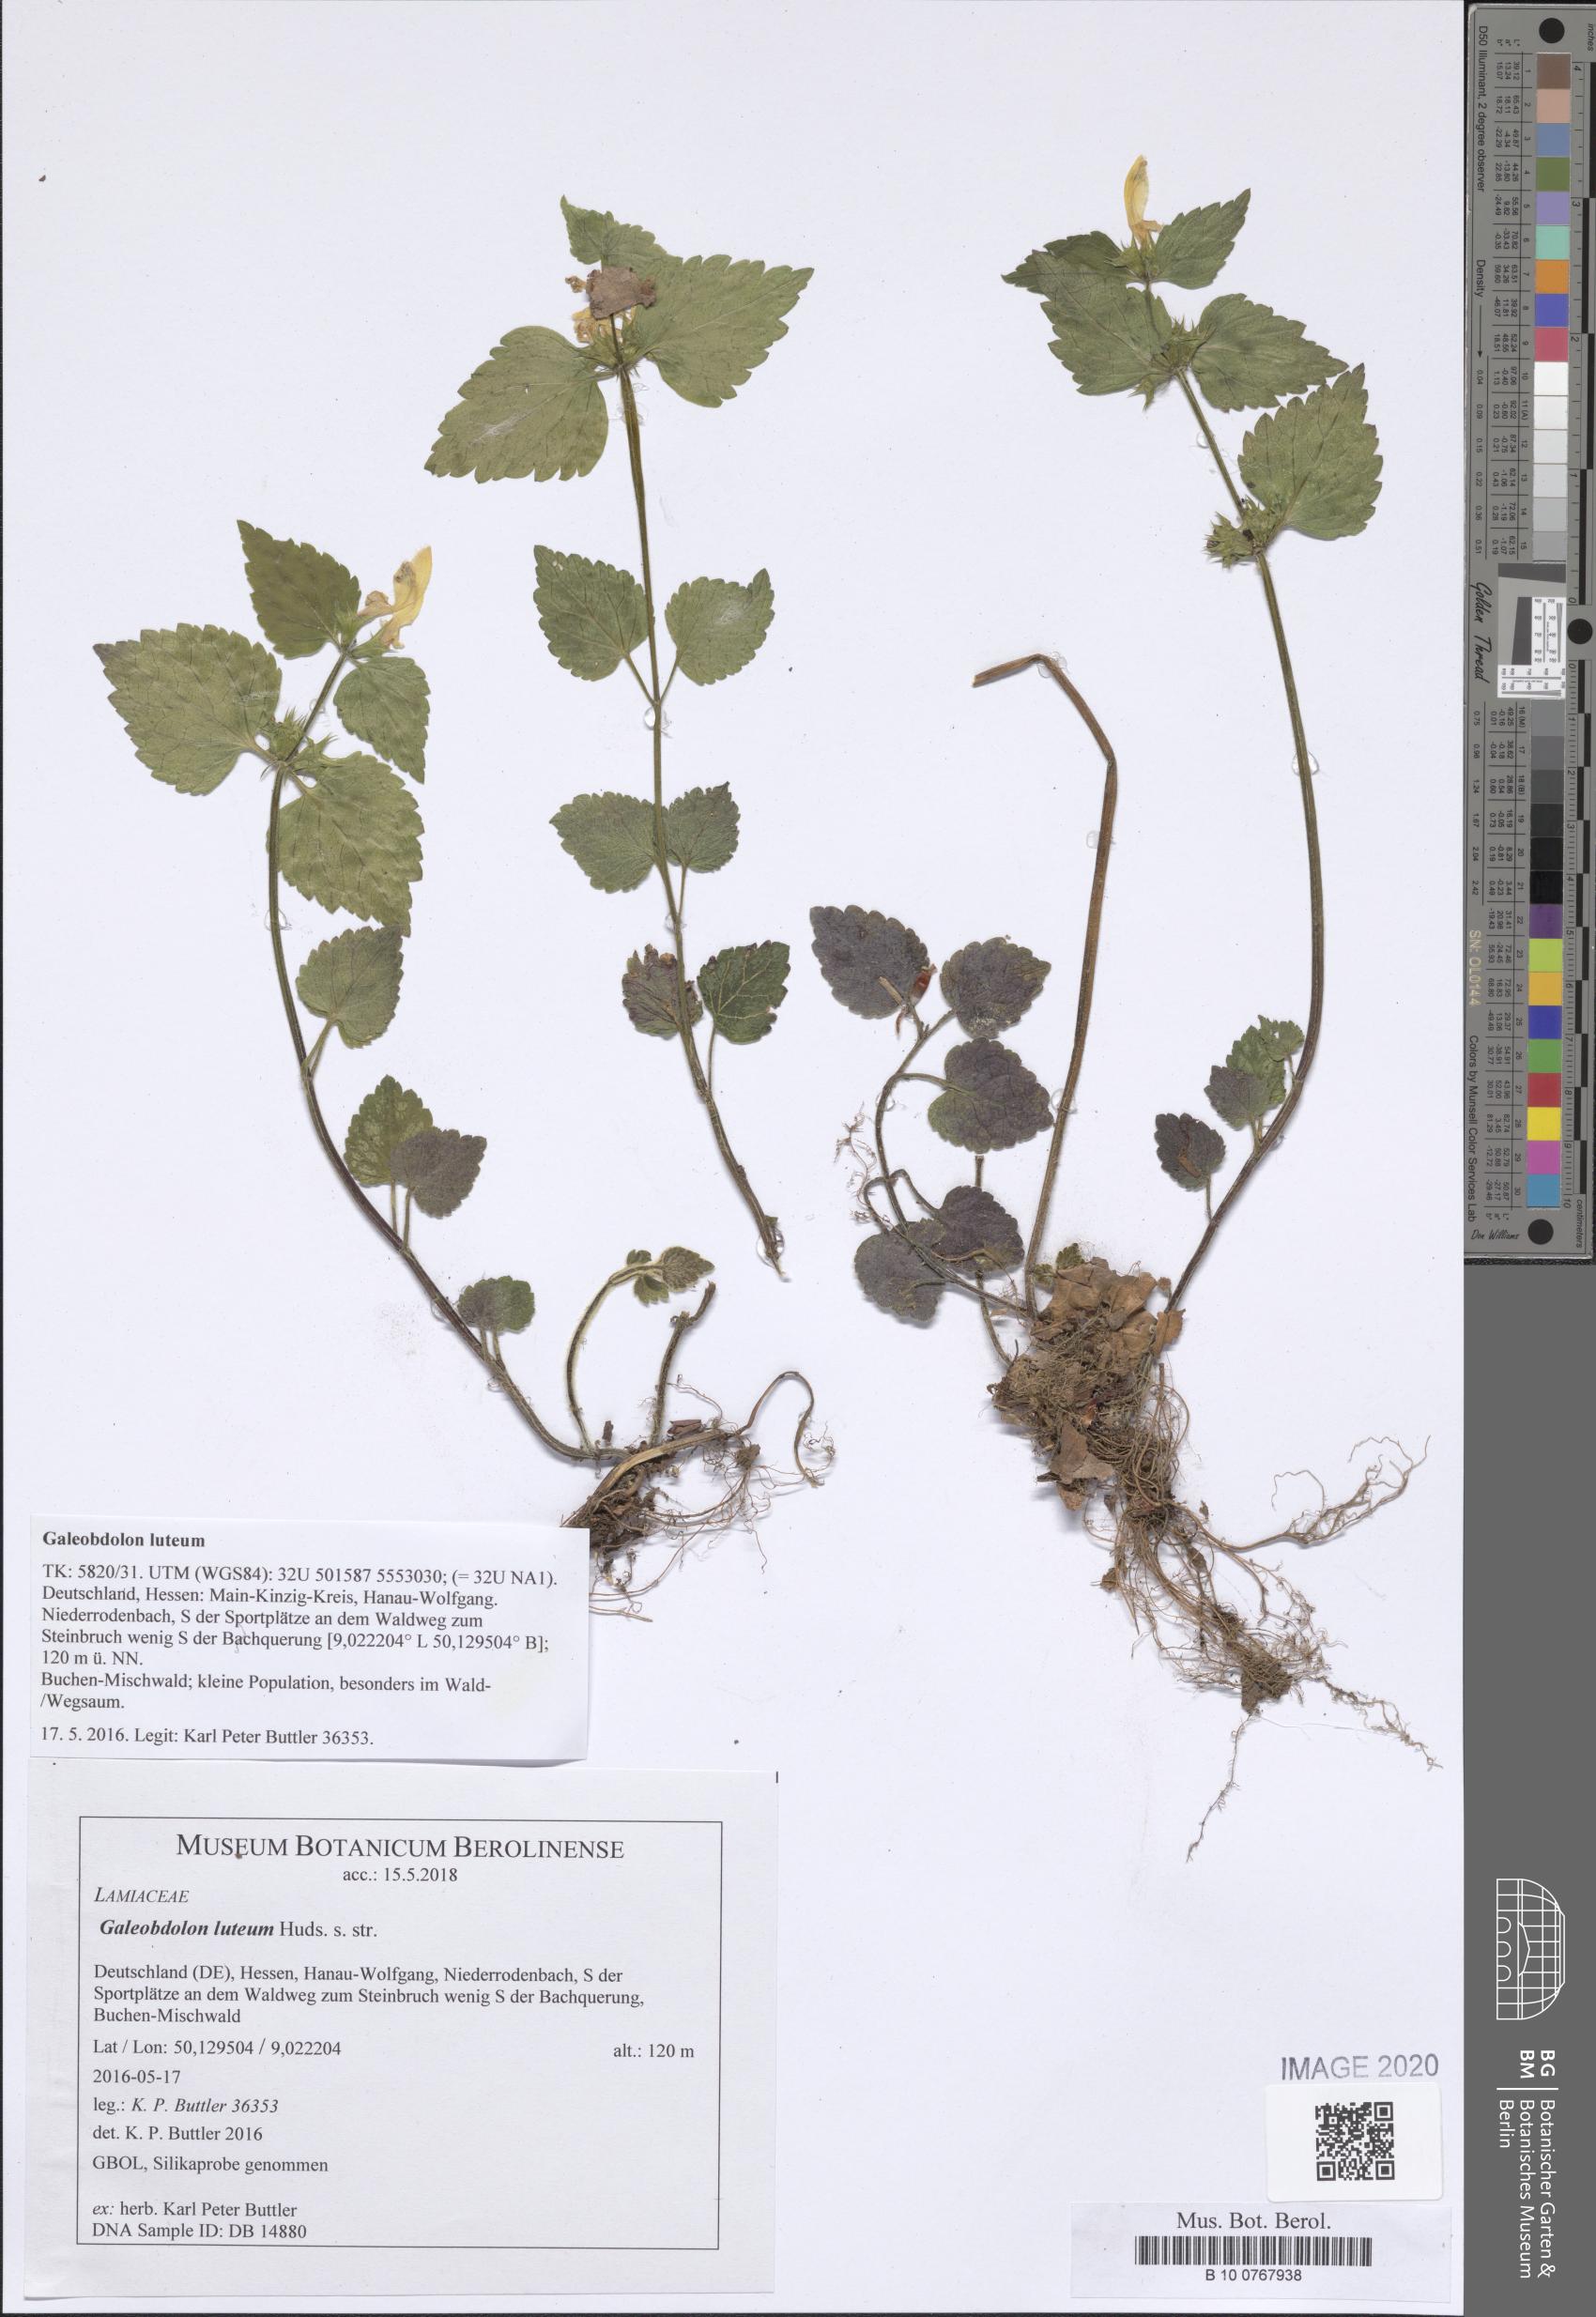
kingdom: Plantae
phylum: Tracheophyta
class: Magnoliopsida
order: Lamiales
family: Lamiaceae
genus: Lamium
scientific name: Lamium galeobdolon
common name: Yellow archangel
